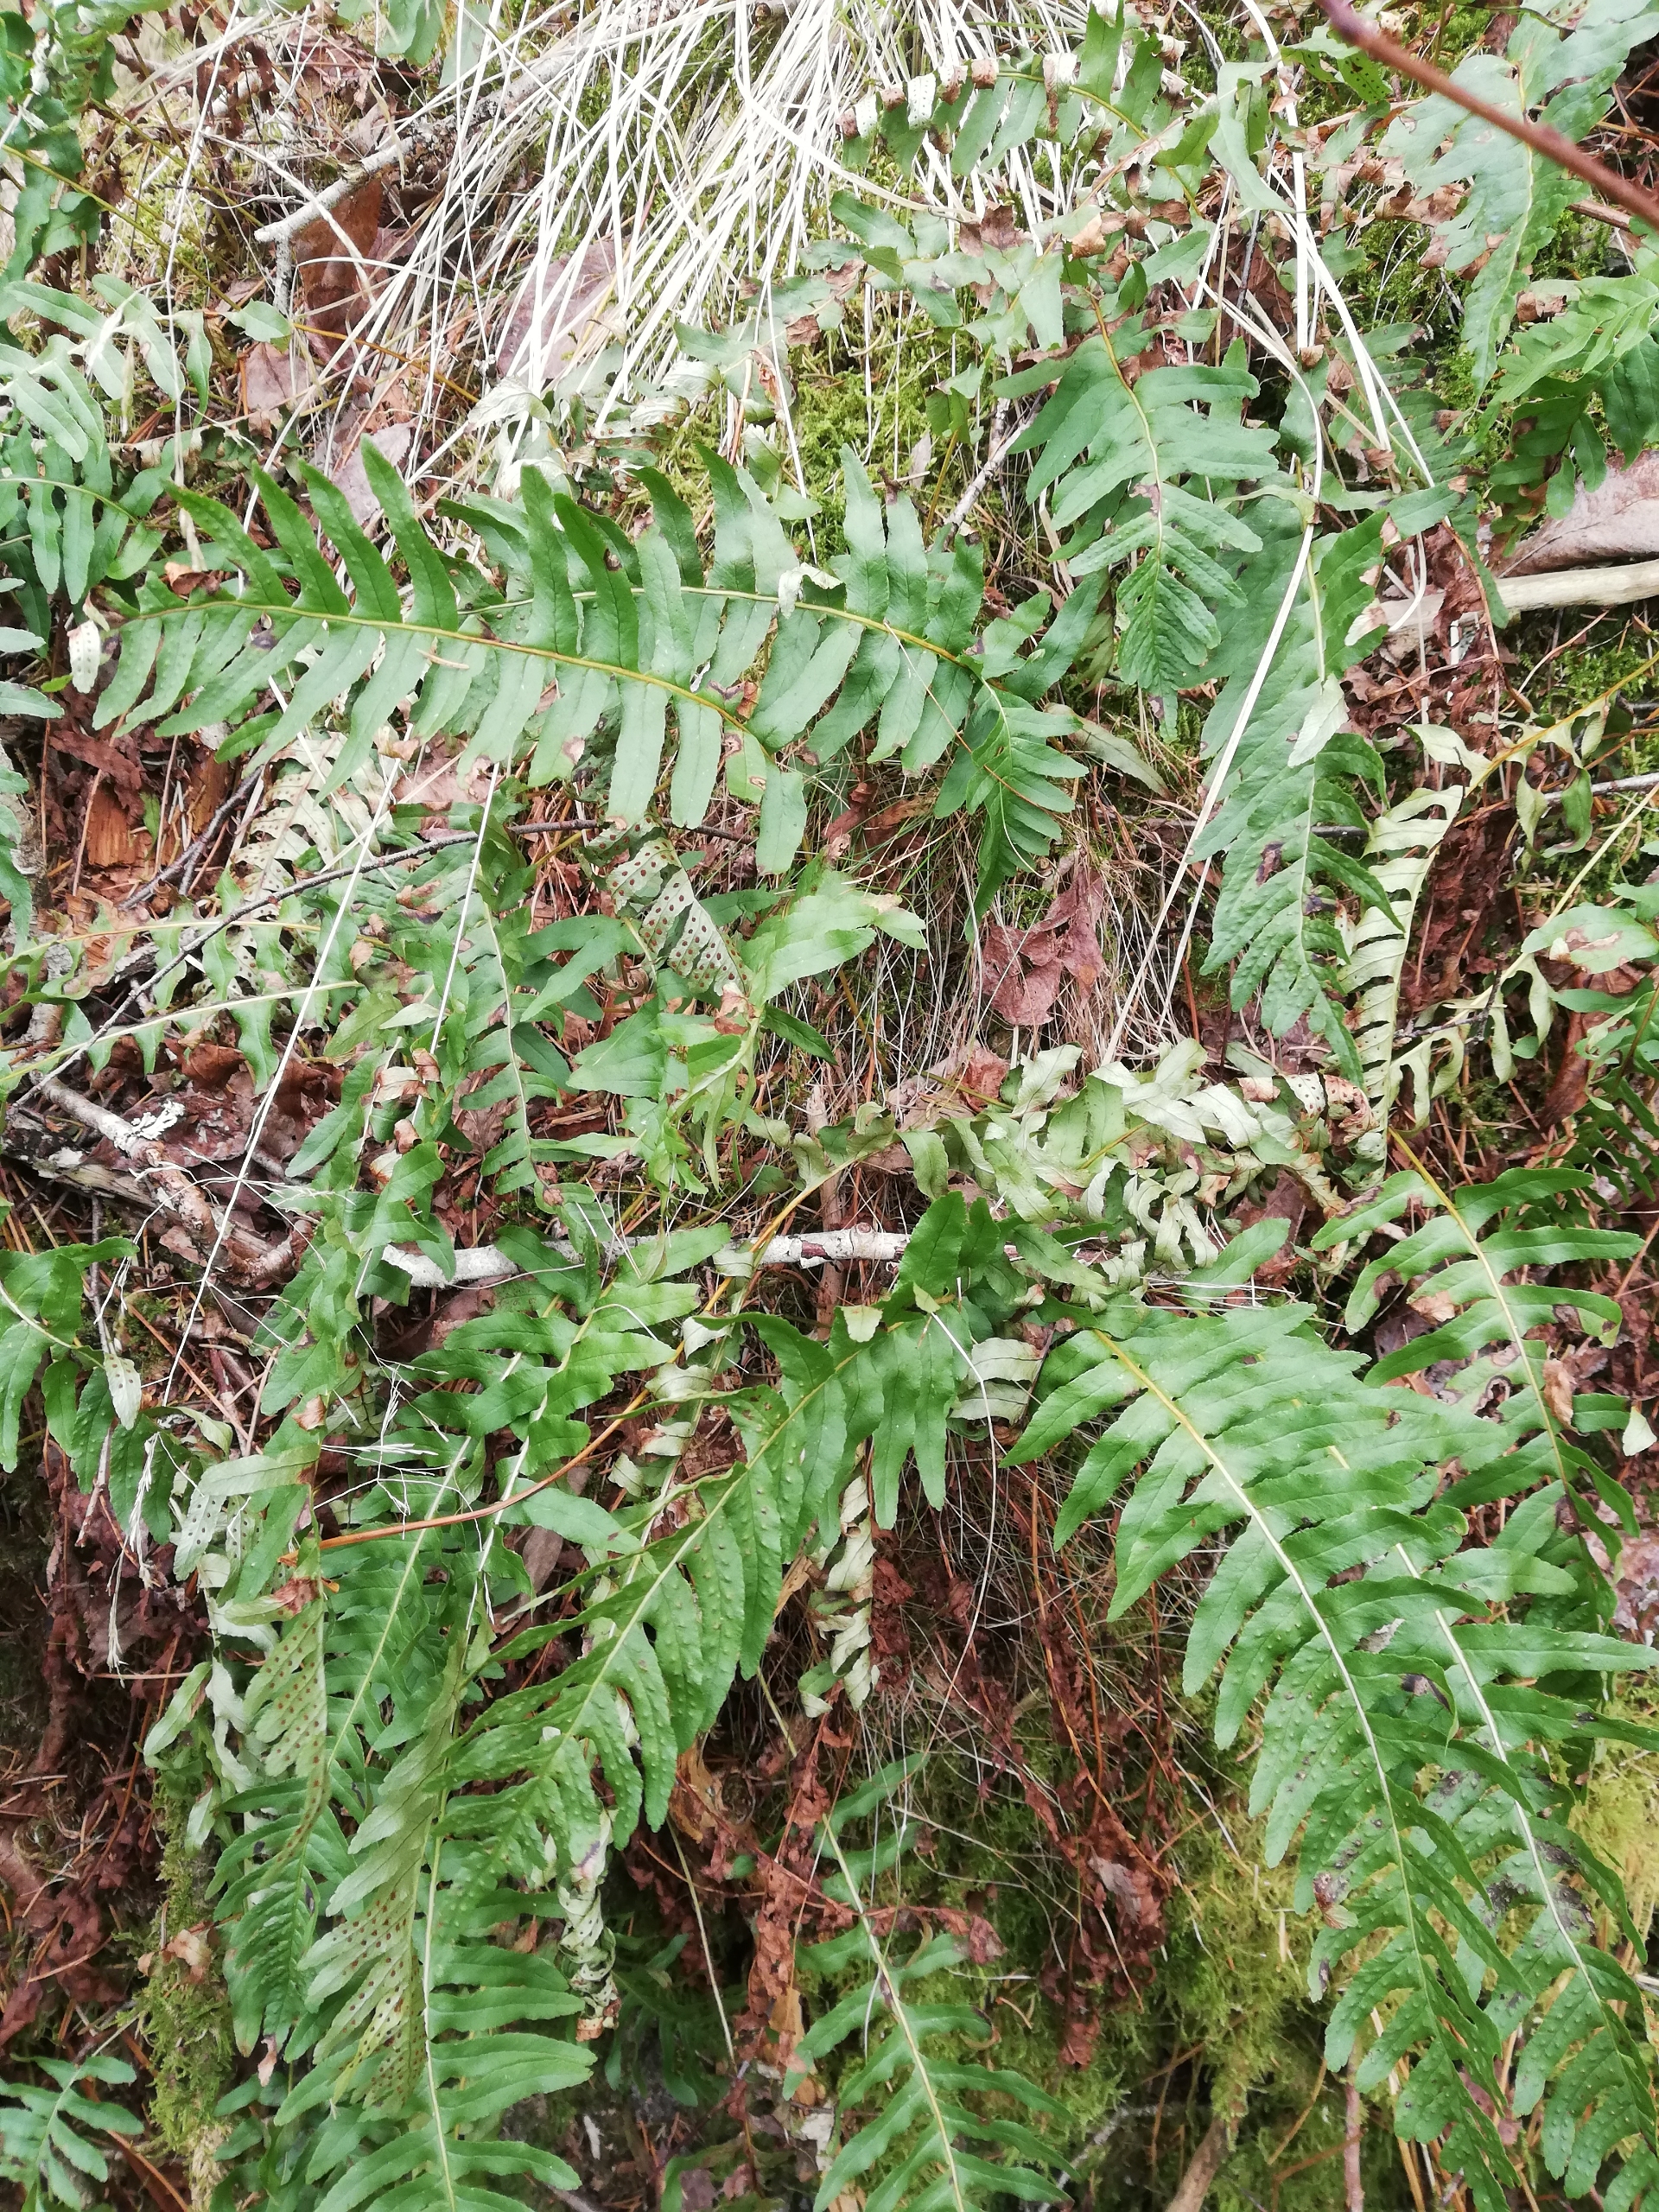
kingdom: Plantae
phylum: Tracheophyta
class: Polypodiopsida
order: Polypodiales
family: Polypodiaceae
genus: Polypodium
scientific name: Polypodium vulgare
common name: Almindelig engelsød
